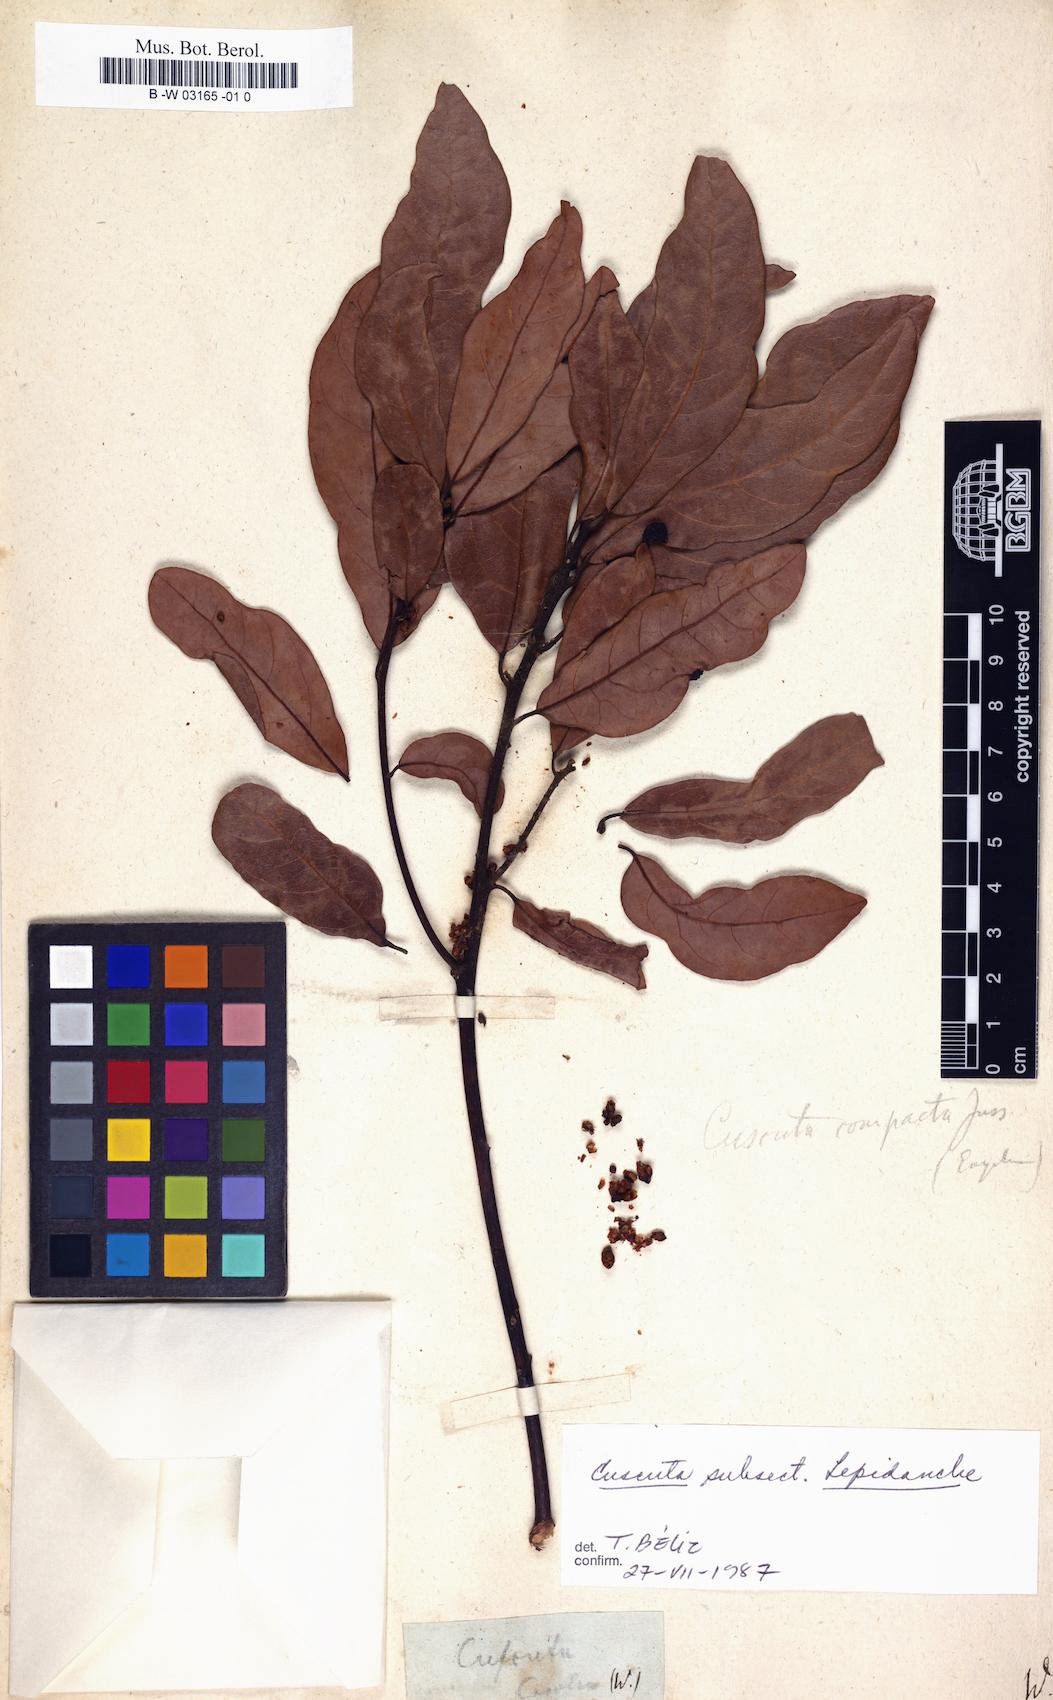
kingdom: Plantae
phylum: Tracheophyta
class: Magnoliopsida
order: Solanales
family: Convolvulaceae
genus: Cuscuta
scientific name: Cuscuta
